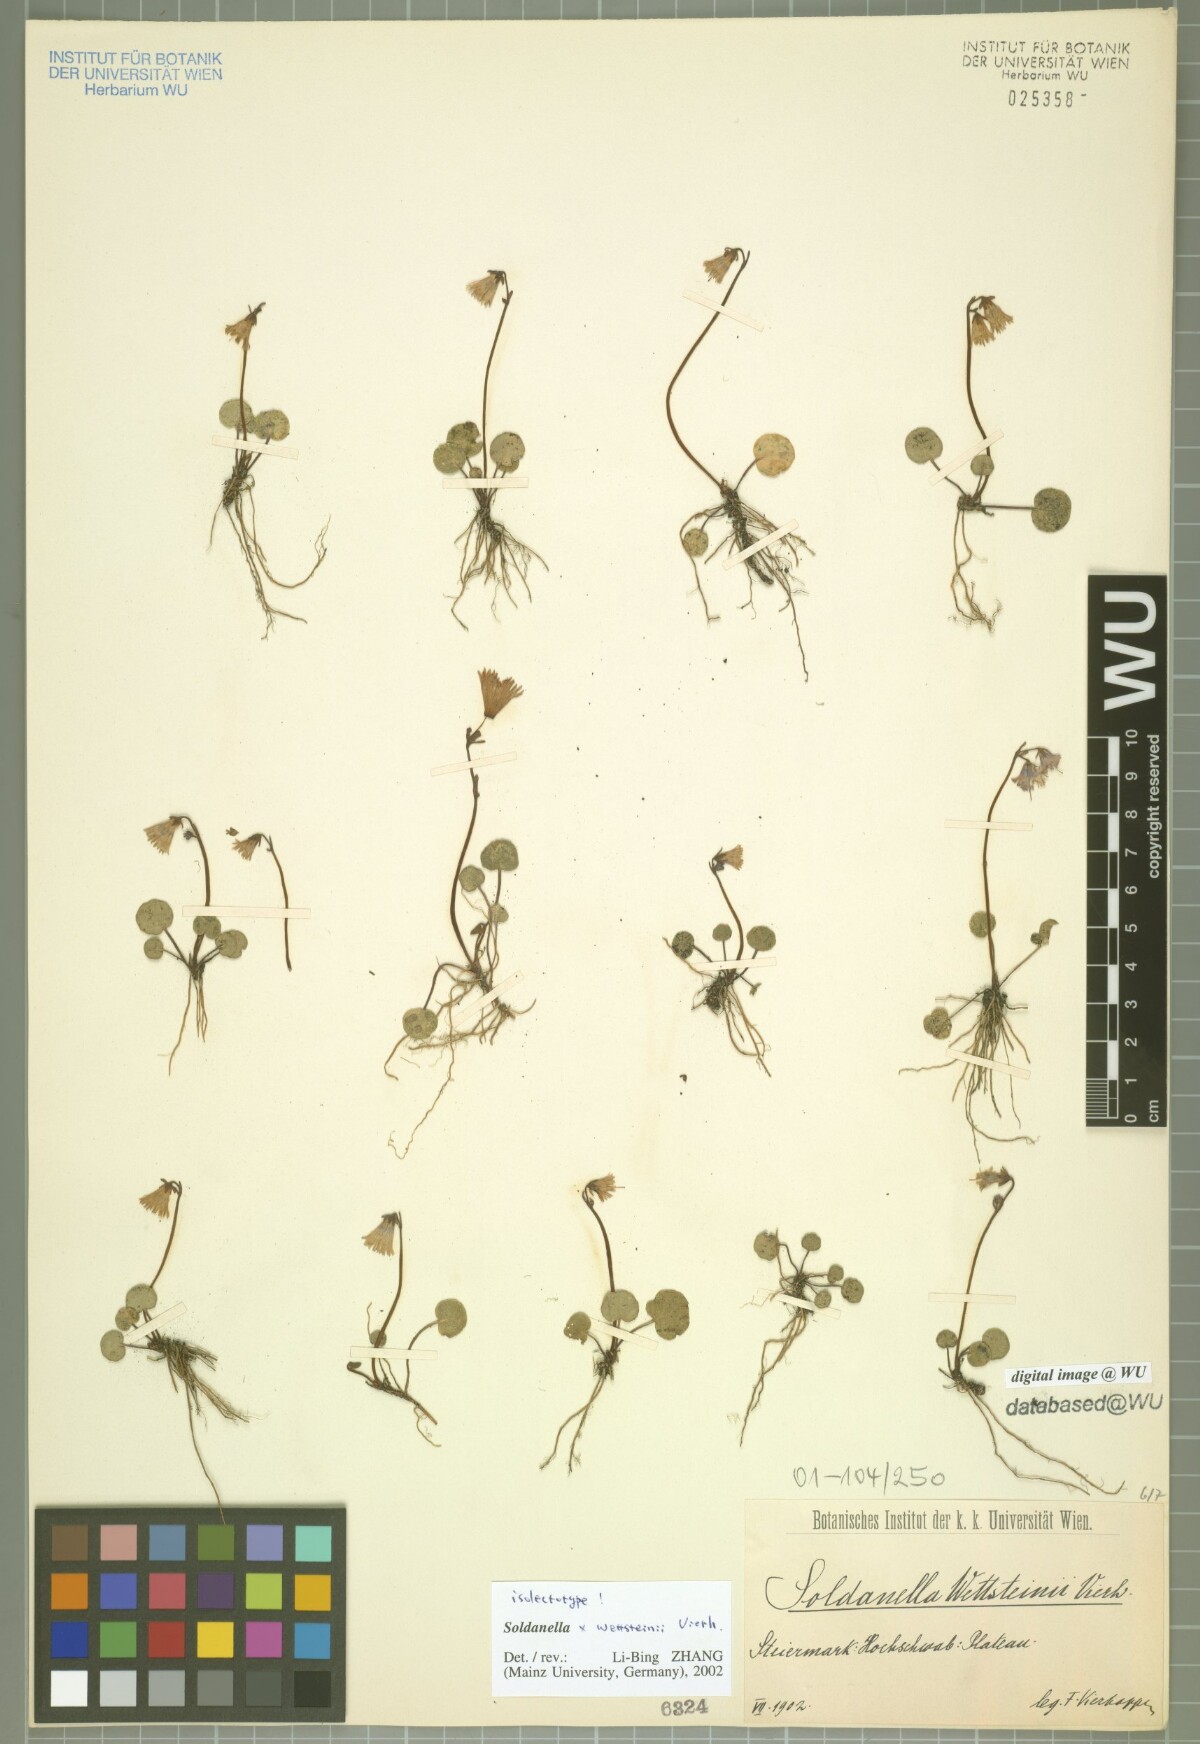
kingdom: Plantae
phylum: Tracheophyta
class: Magnoliopsida
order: Ericales
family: Primulaceae
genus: Soldanella
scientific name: Soldanella wettsteinii
